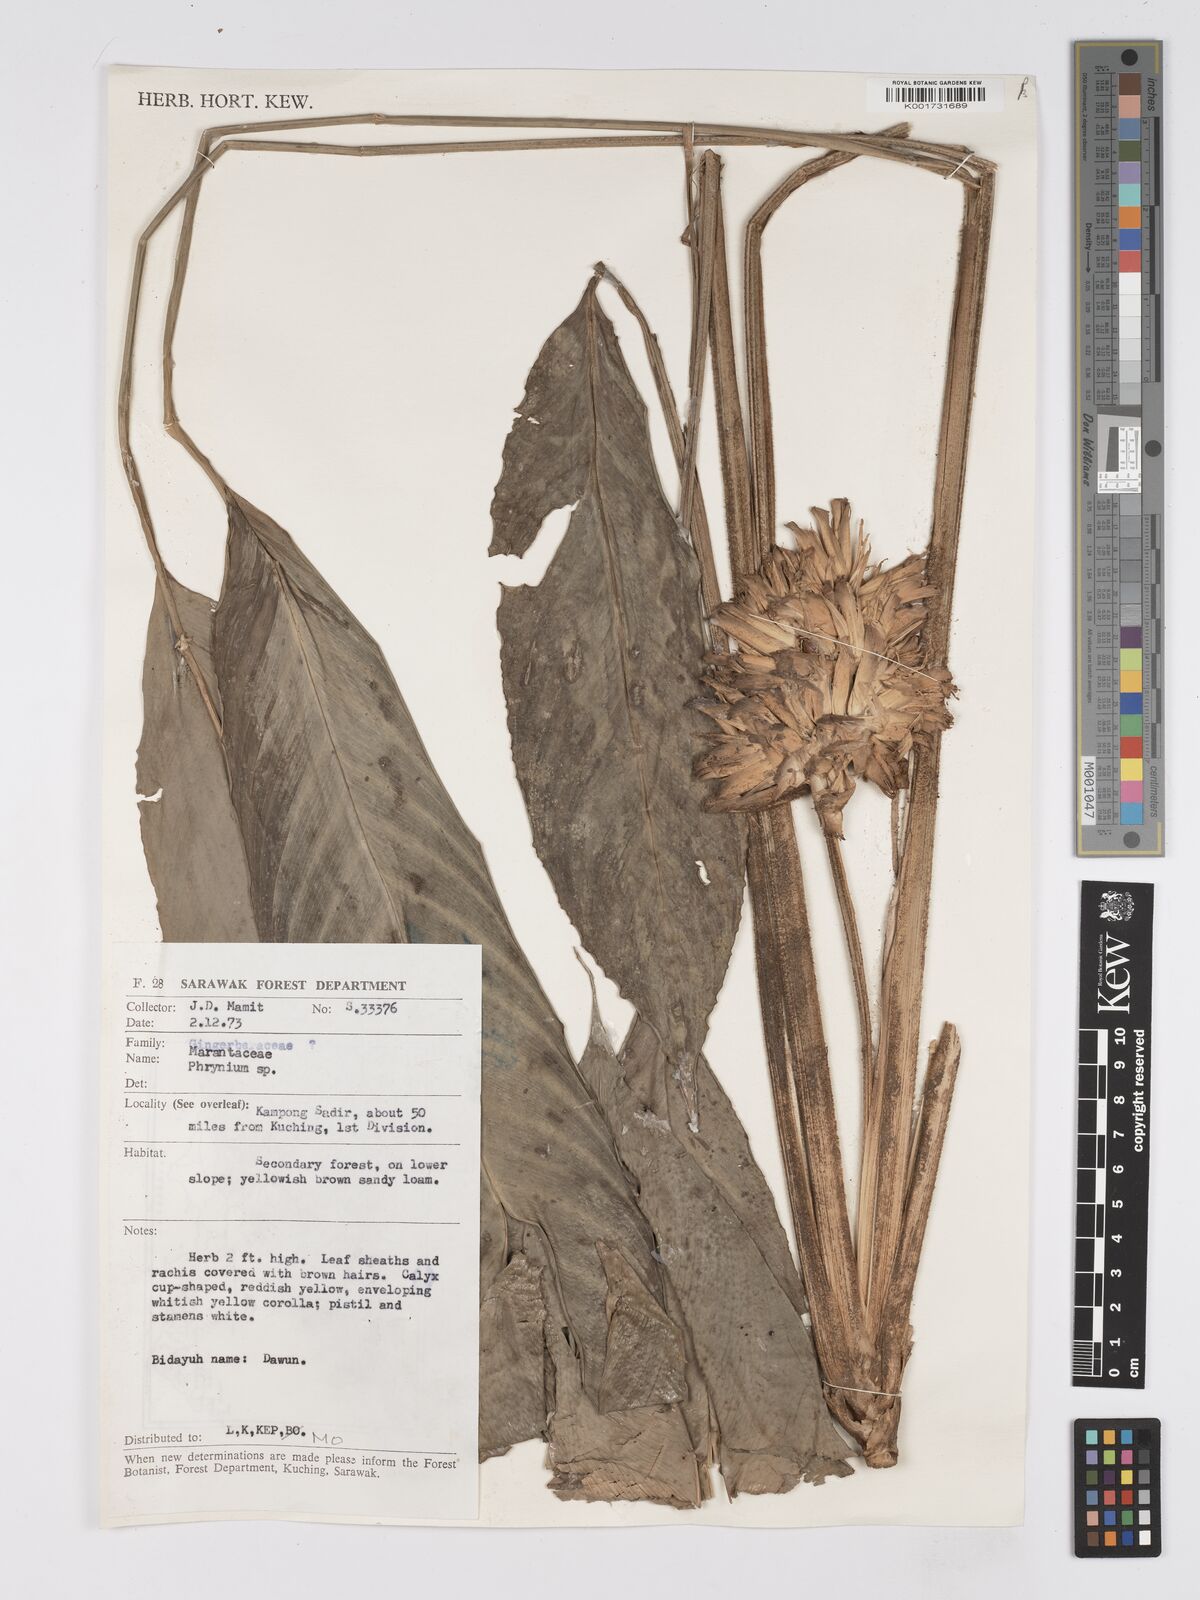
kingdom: Plantae
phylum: Tracheophyta
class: Liliopsida
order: Zingiberales
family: Marantaceae
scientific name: Marantaceae
